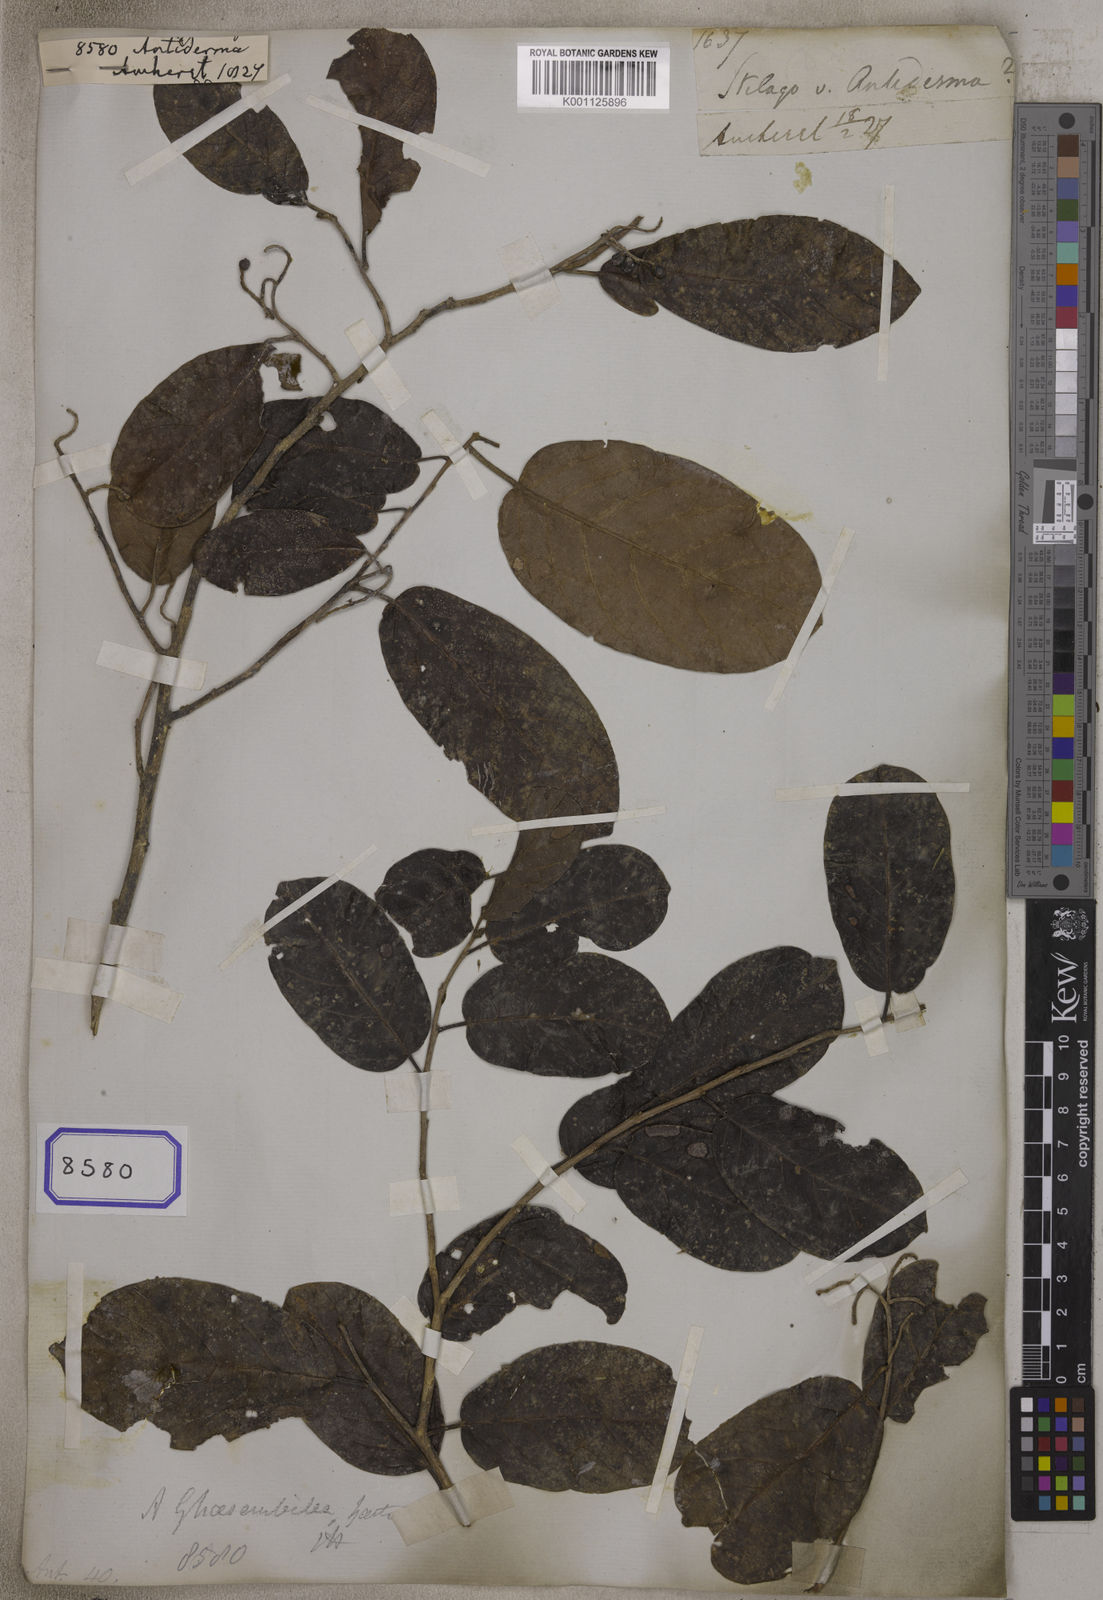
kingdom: Plantae
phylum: Tracheophyta
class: Magnoliopsida
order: Malpighiales
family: Phyllanthaceae
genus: Antidesma
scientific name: Antidesma
